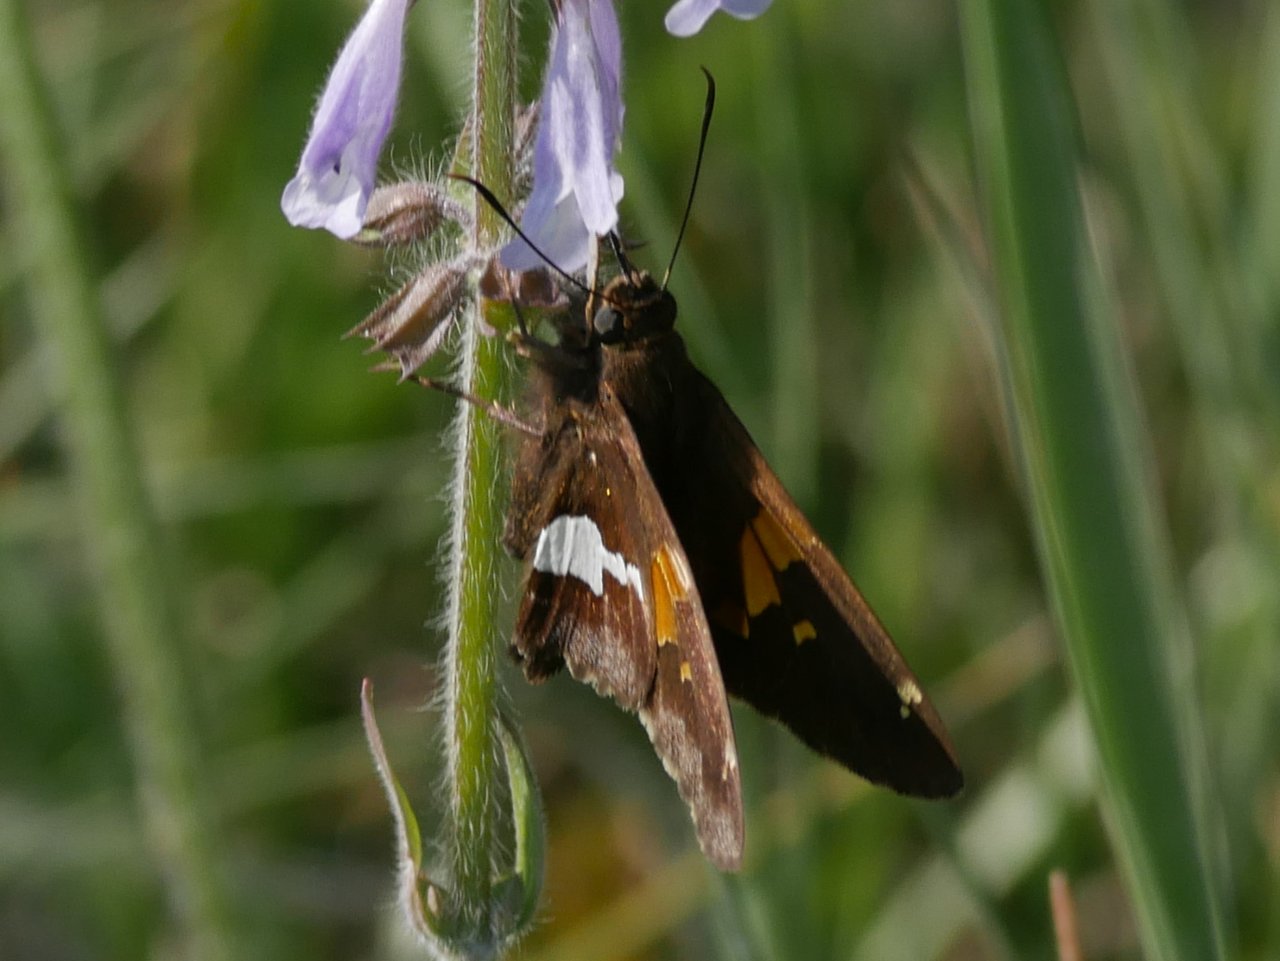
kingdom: Animalia
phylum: Arthropoda
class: Insecta
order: Lepidoptera
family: Hesperiidae
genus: Epargyreus
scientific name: Epargyreus clarus
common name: Silver-spotted Skipper
